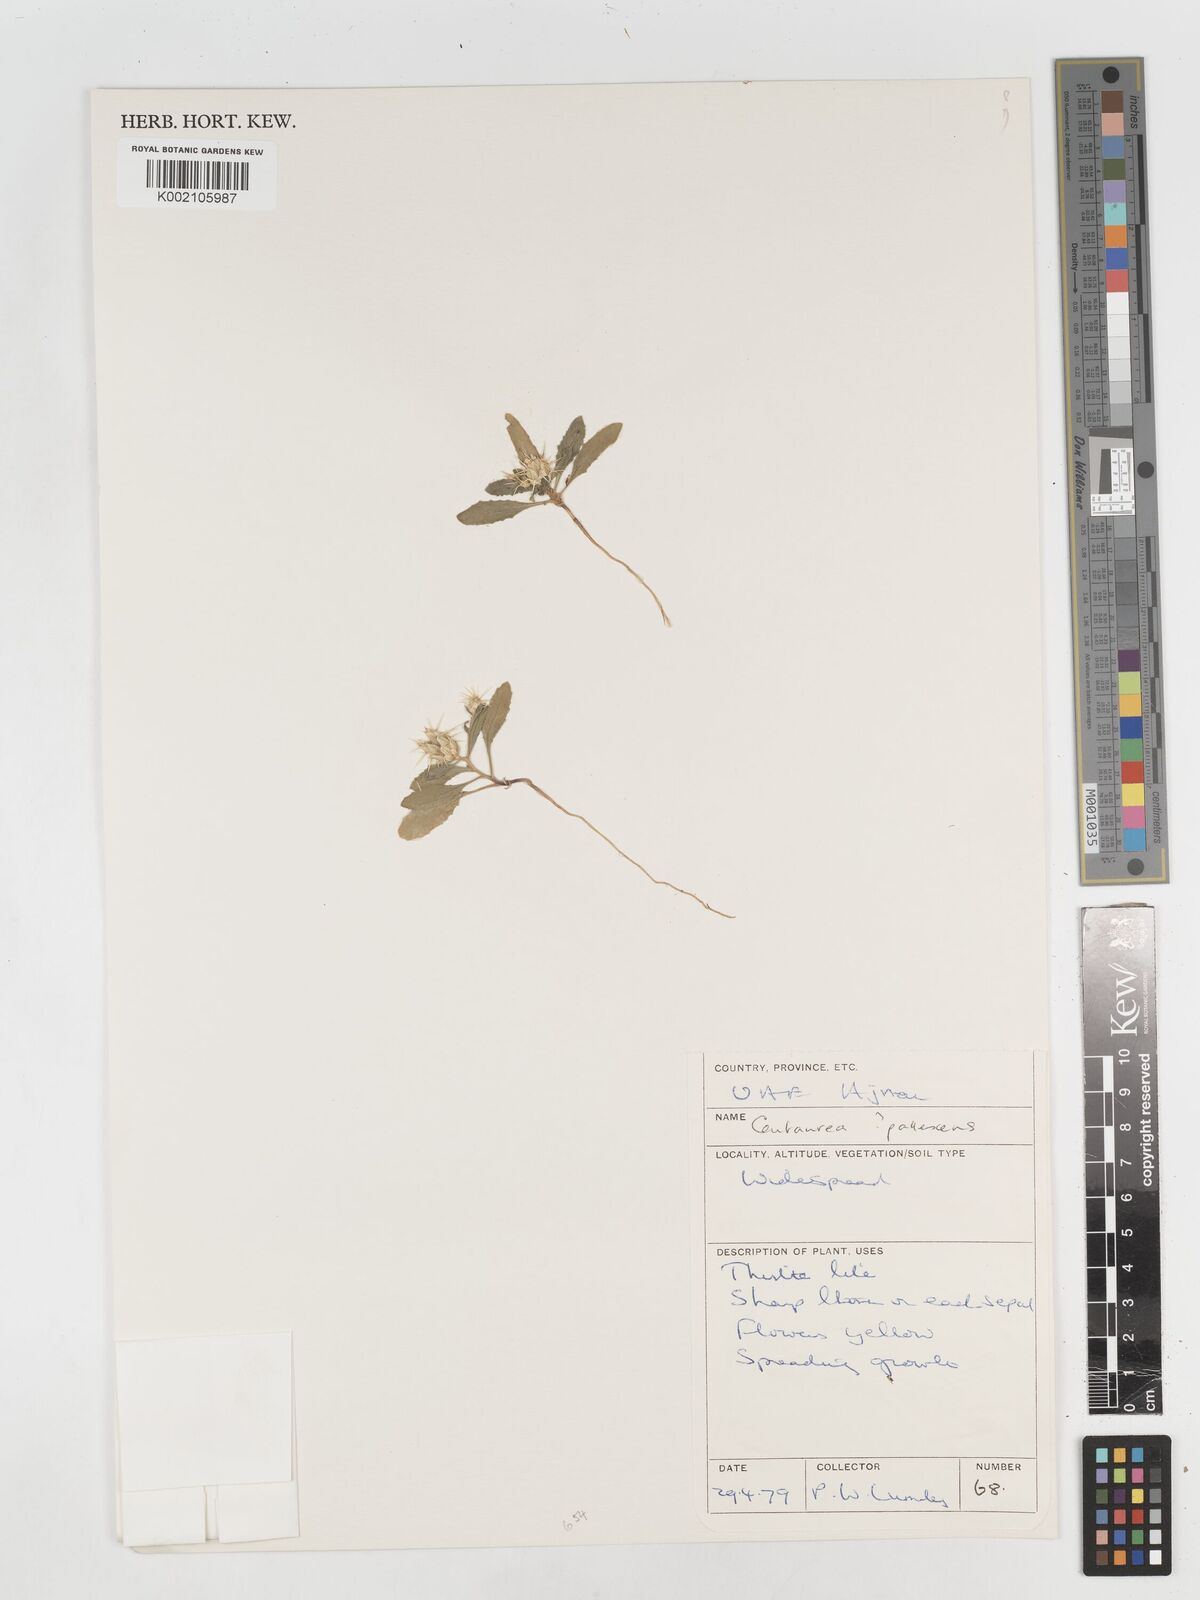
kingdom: Plantae
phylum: Tracheophyta
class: Magnoliopsida
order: Asterales
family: Asteraceae
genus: Centaurea
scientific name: Centaurea
